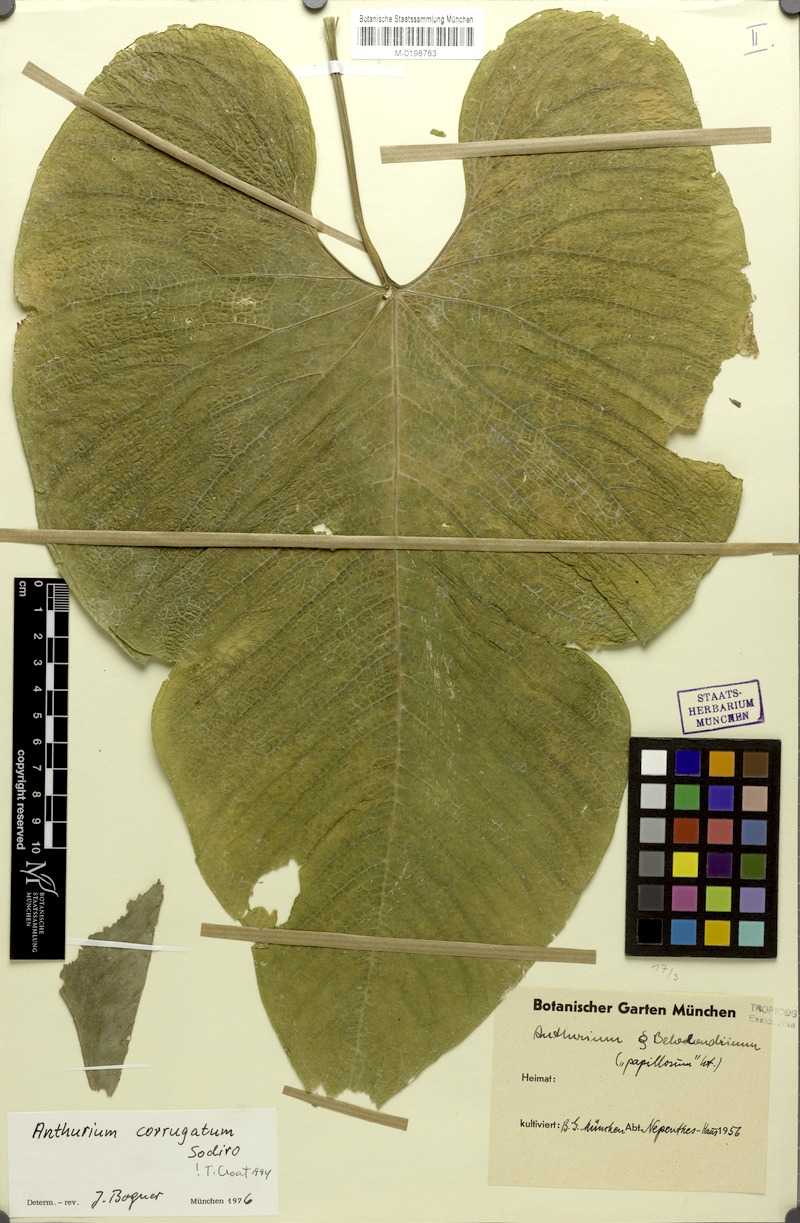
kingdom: Plantae
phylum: Tracheophyta
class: Liliopsida
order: Alismatales
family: Araceae
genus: Anthurium
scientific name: Anthurium corrugatum
